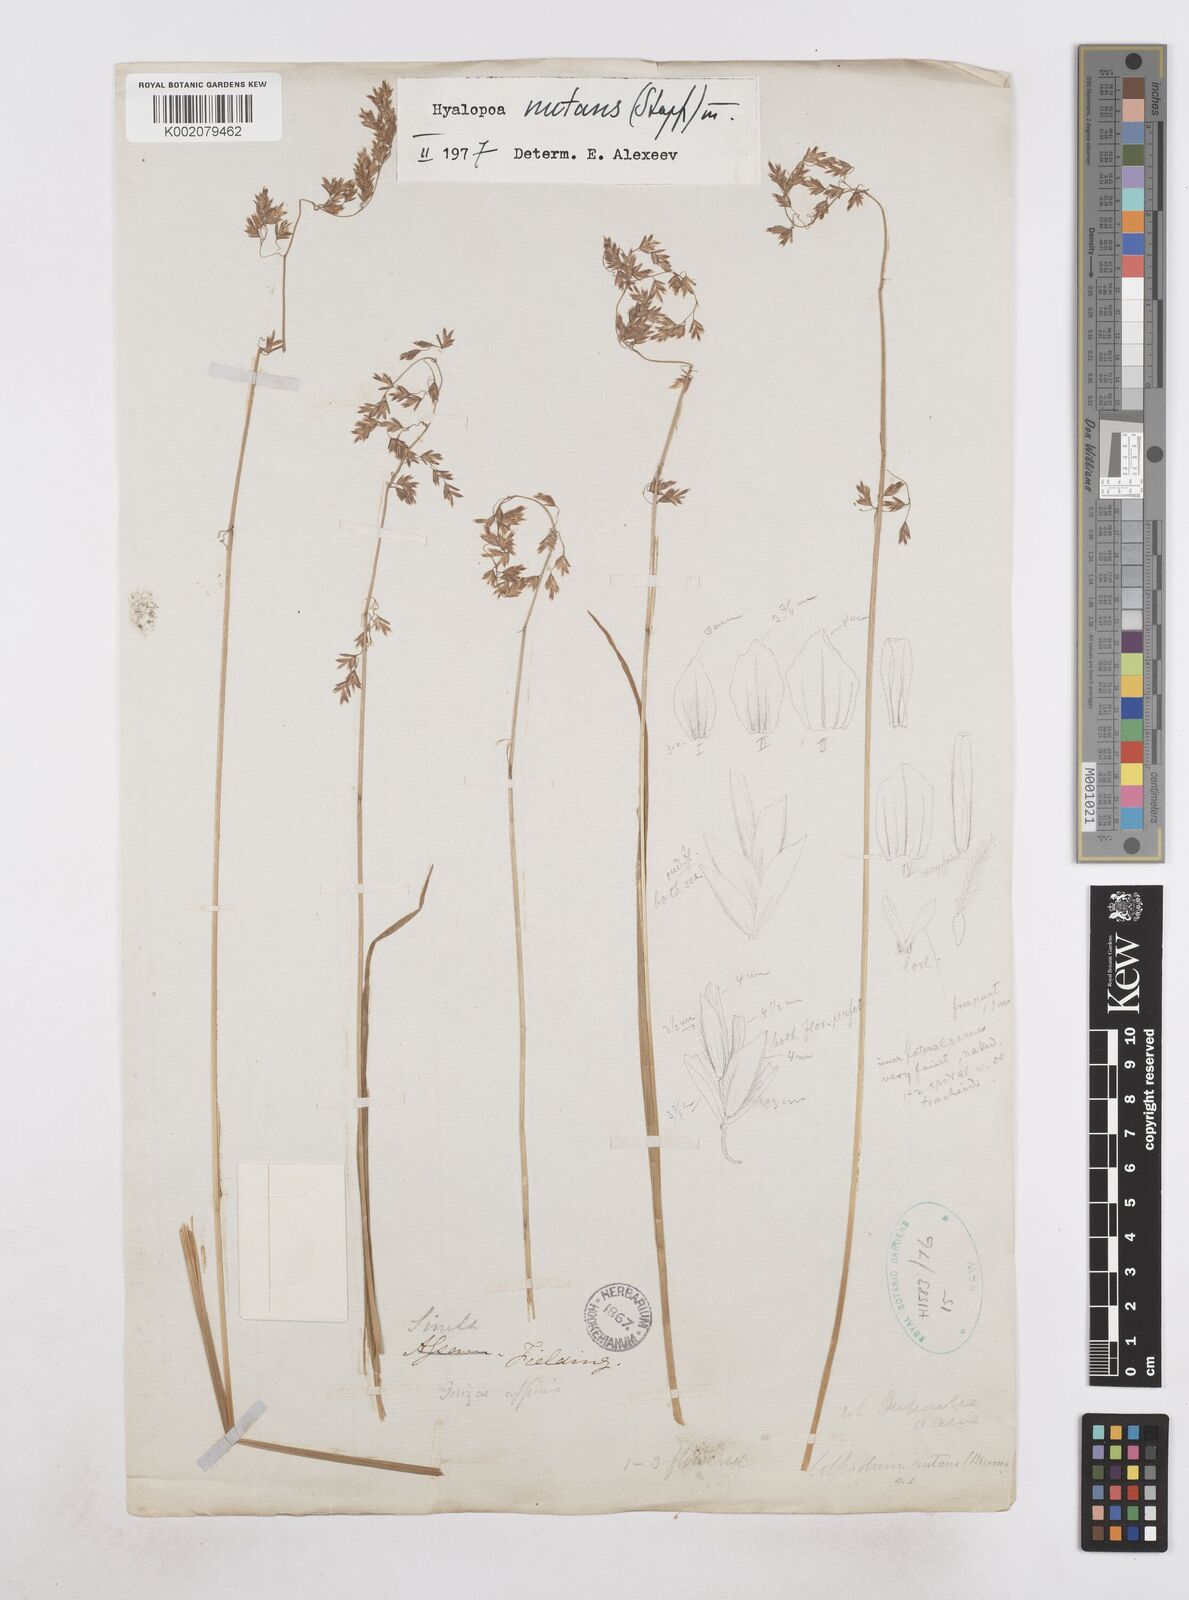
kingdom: Plantae
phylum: Tracheophyta
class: Liliopsida
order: Poales
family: Poaceae
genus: Hyalopoa
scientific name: Hyalopoa nutans
